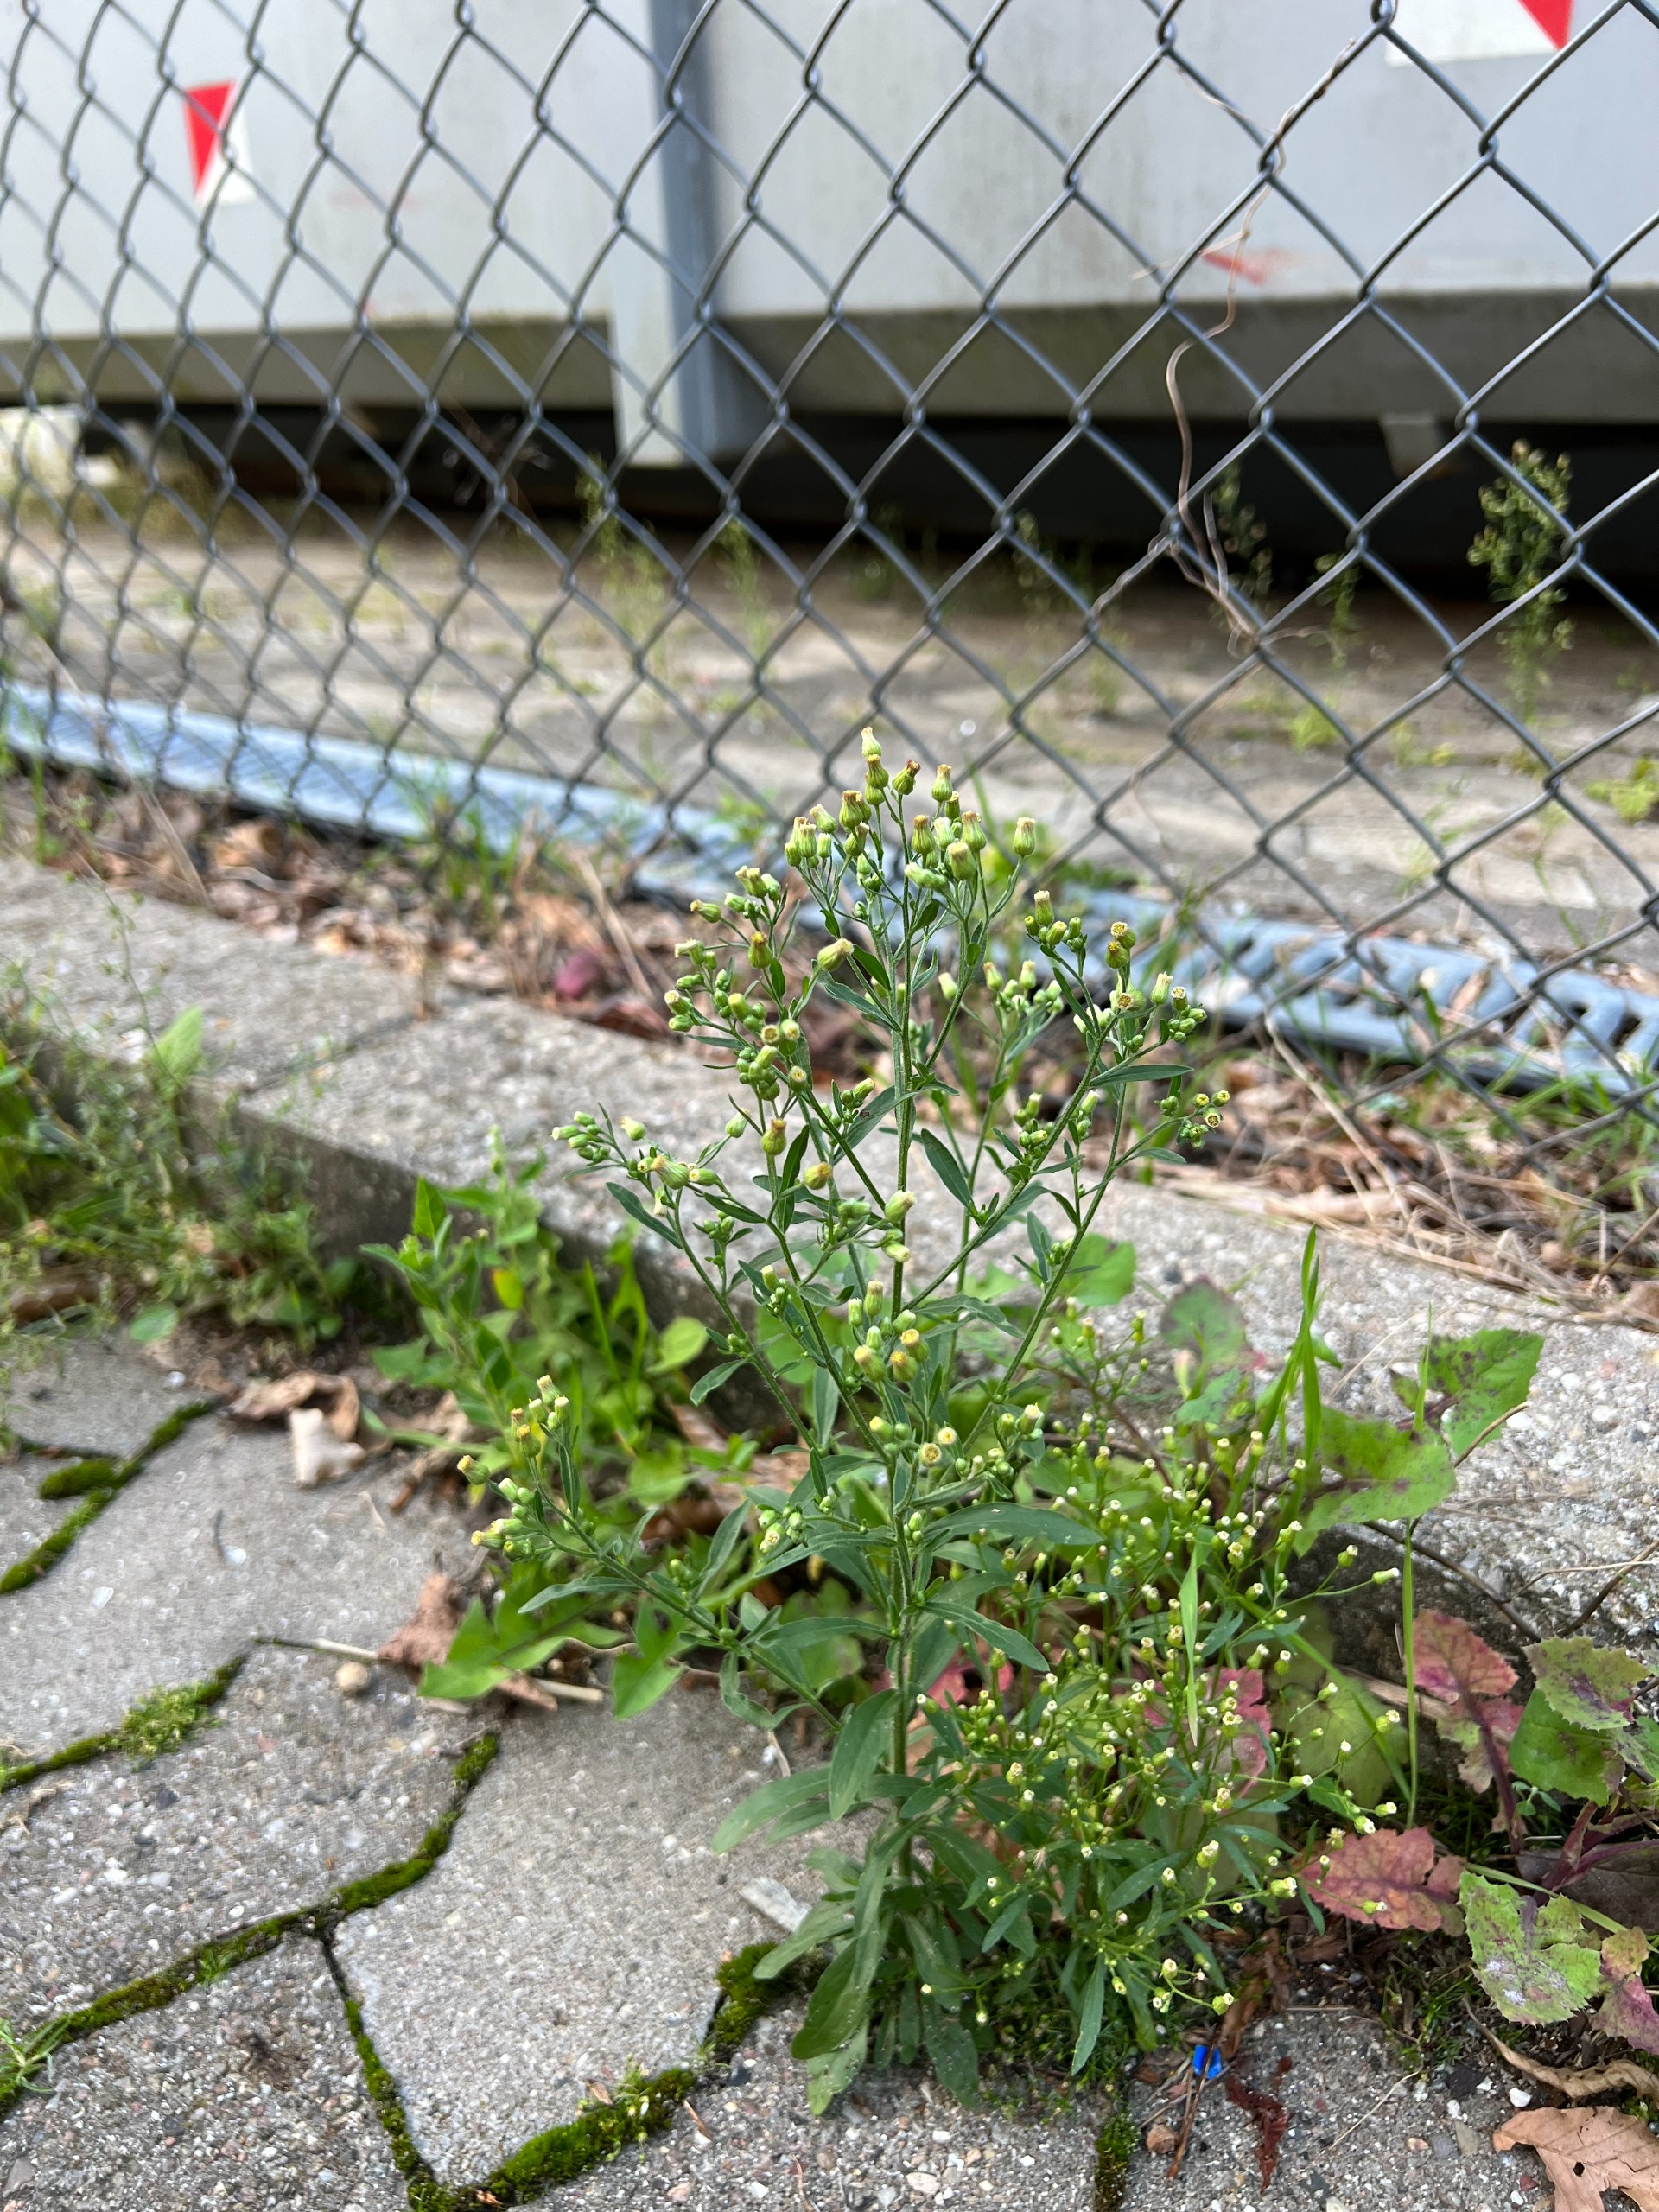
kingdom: Plantae
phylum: Tracheophyta
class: Magnoliopsida
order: Asterales
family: Asteraceae
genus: Erigeron
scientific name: Erigeron sumatrensis
